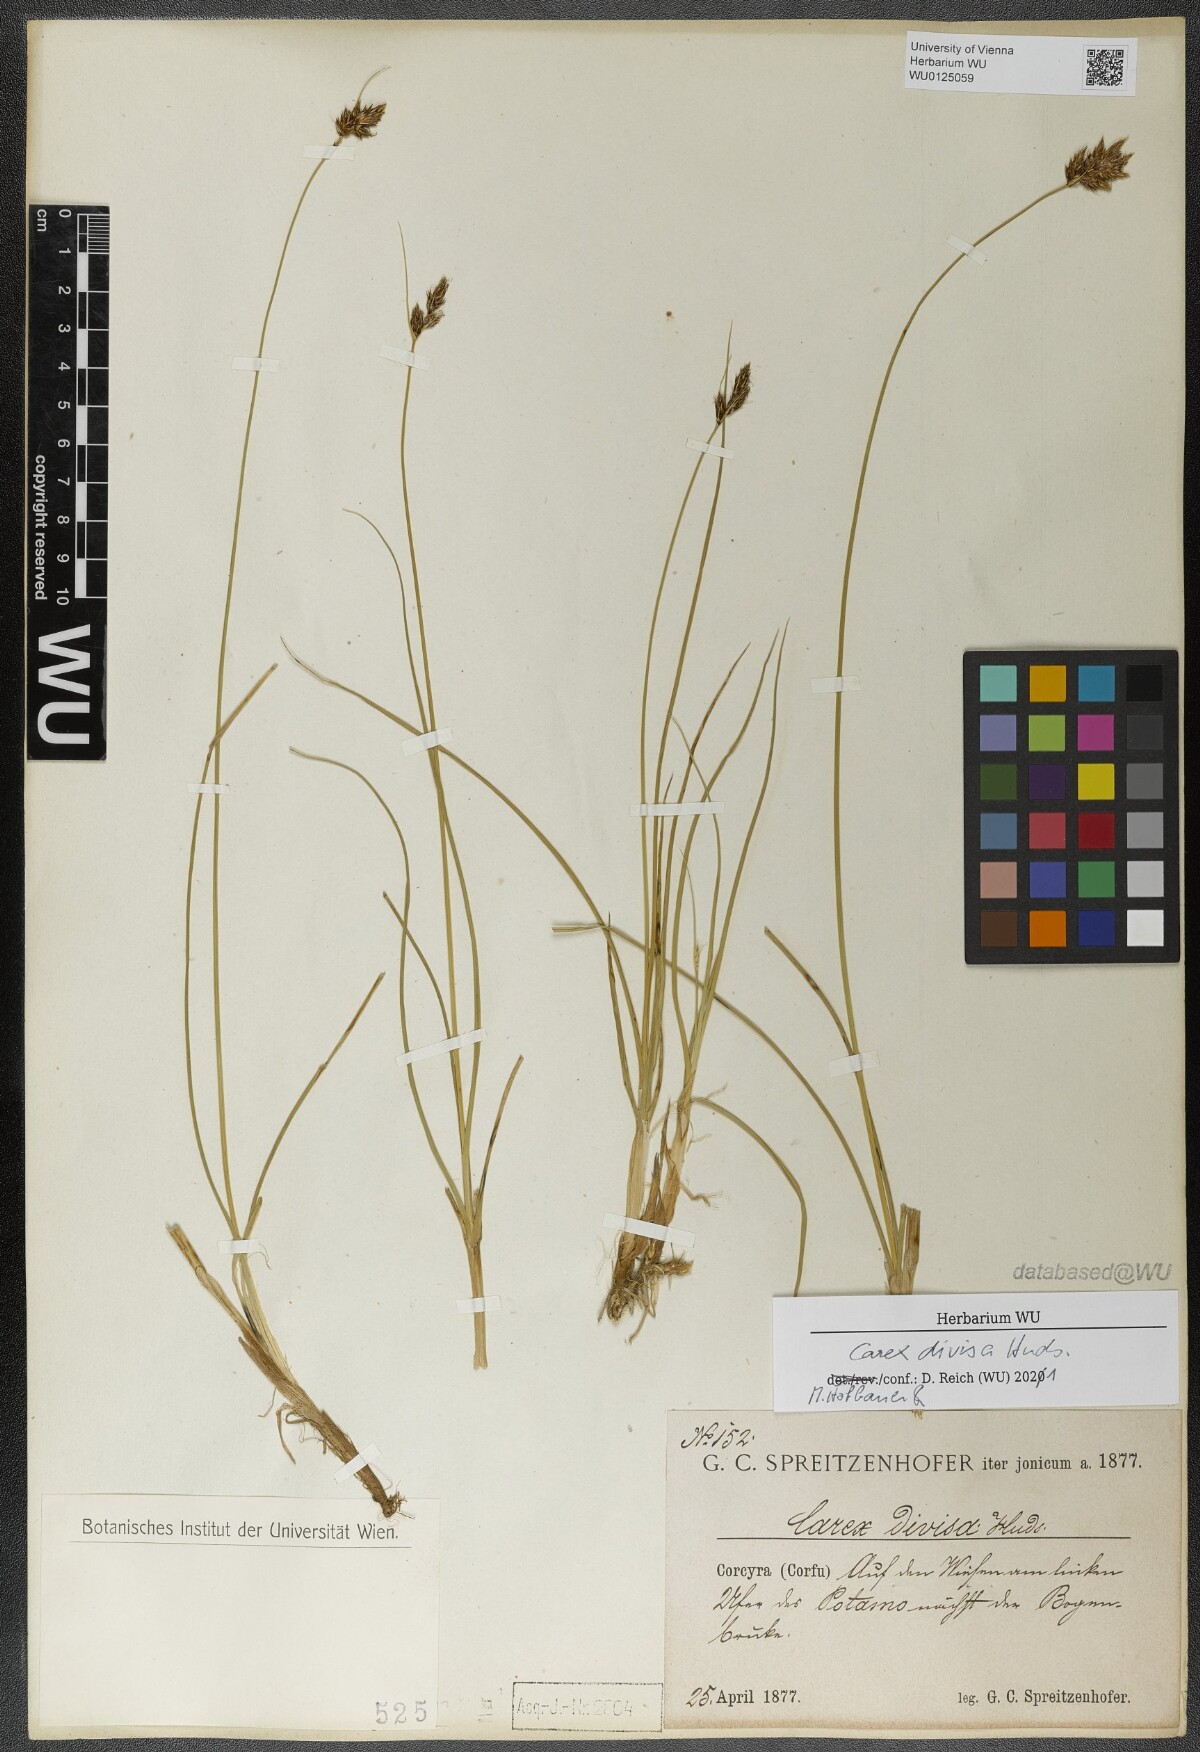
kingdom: Plantae
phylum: Tracheophyta
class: Liliopsida
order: Poales
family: Cyperaceae
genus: Carex
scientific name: Carex divisa
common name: Divided sedge
